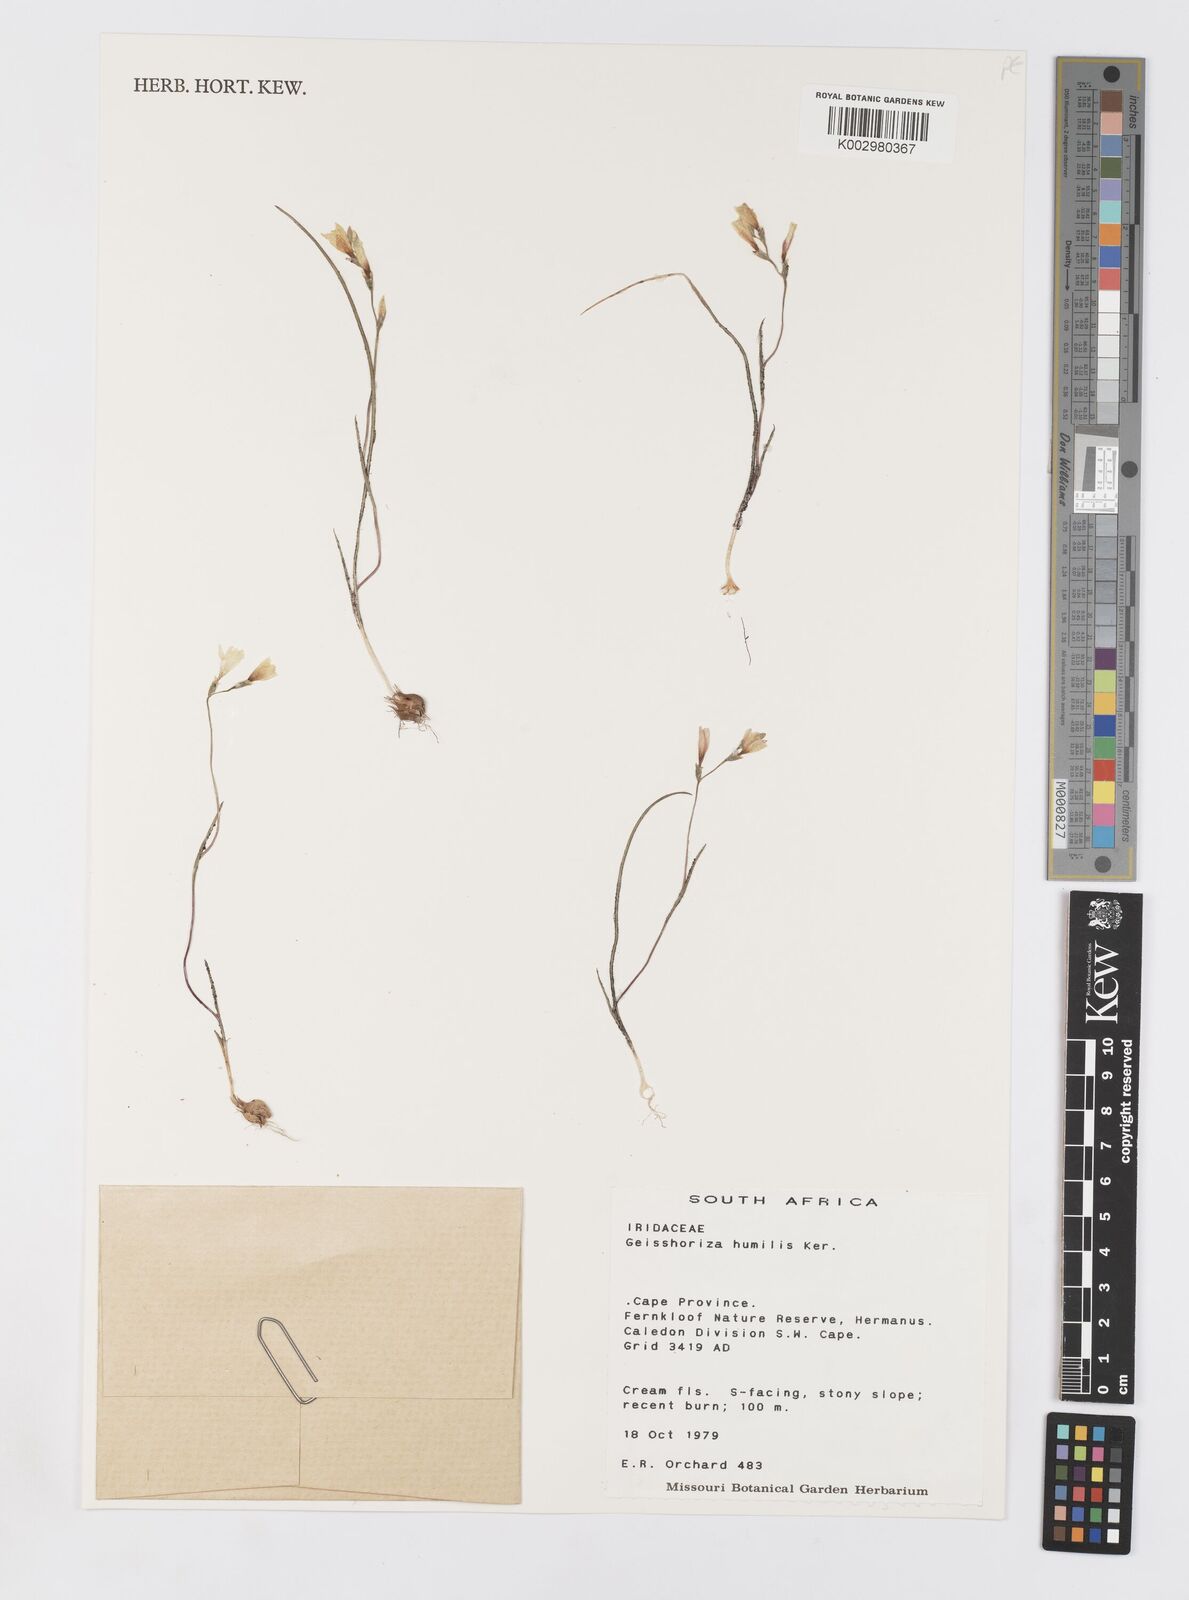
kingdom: Plantae
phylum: Tracheophyta
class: Liliopsida
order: Asparagales
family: Iridaceae
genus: Geissorhiza
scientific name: Geissorhiza humilis
